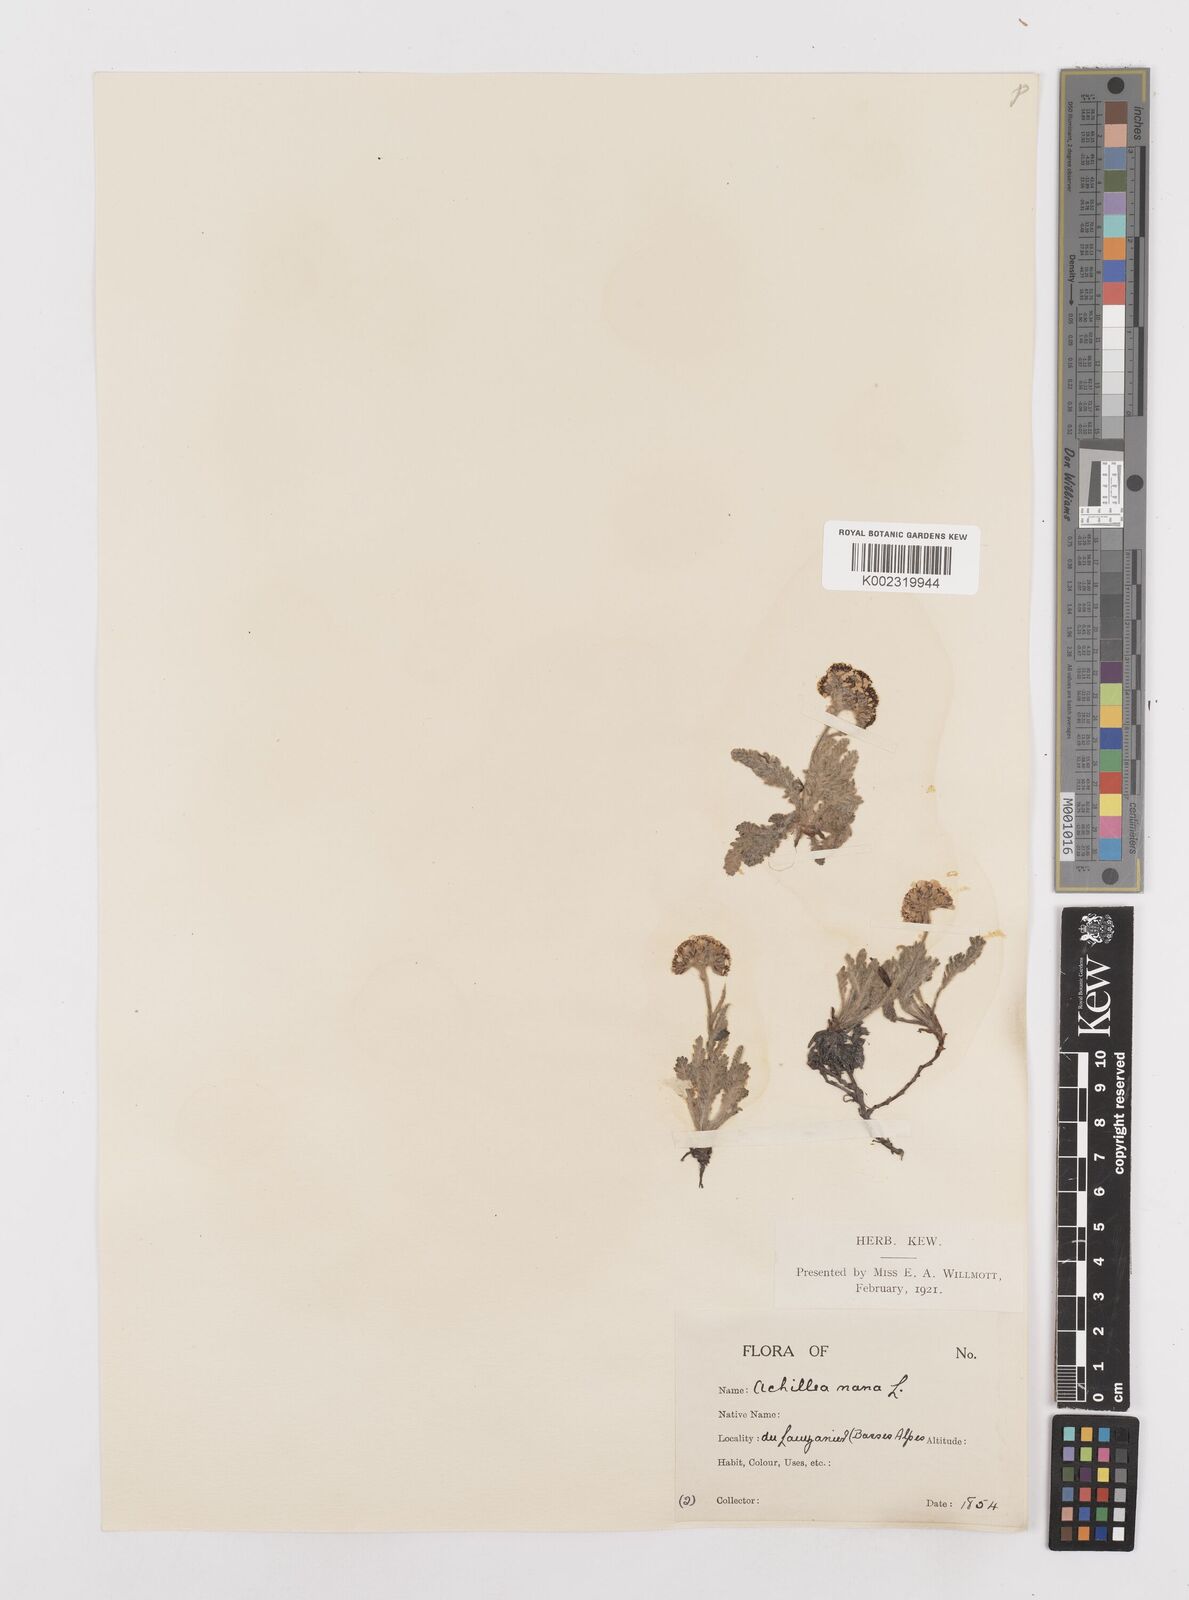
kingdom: Plantae
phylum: Tracheophyta
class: Magnoliopsida
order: Asterales
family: Asteraceae
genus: Achillea
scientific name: Achillea
